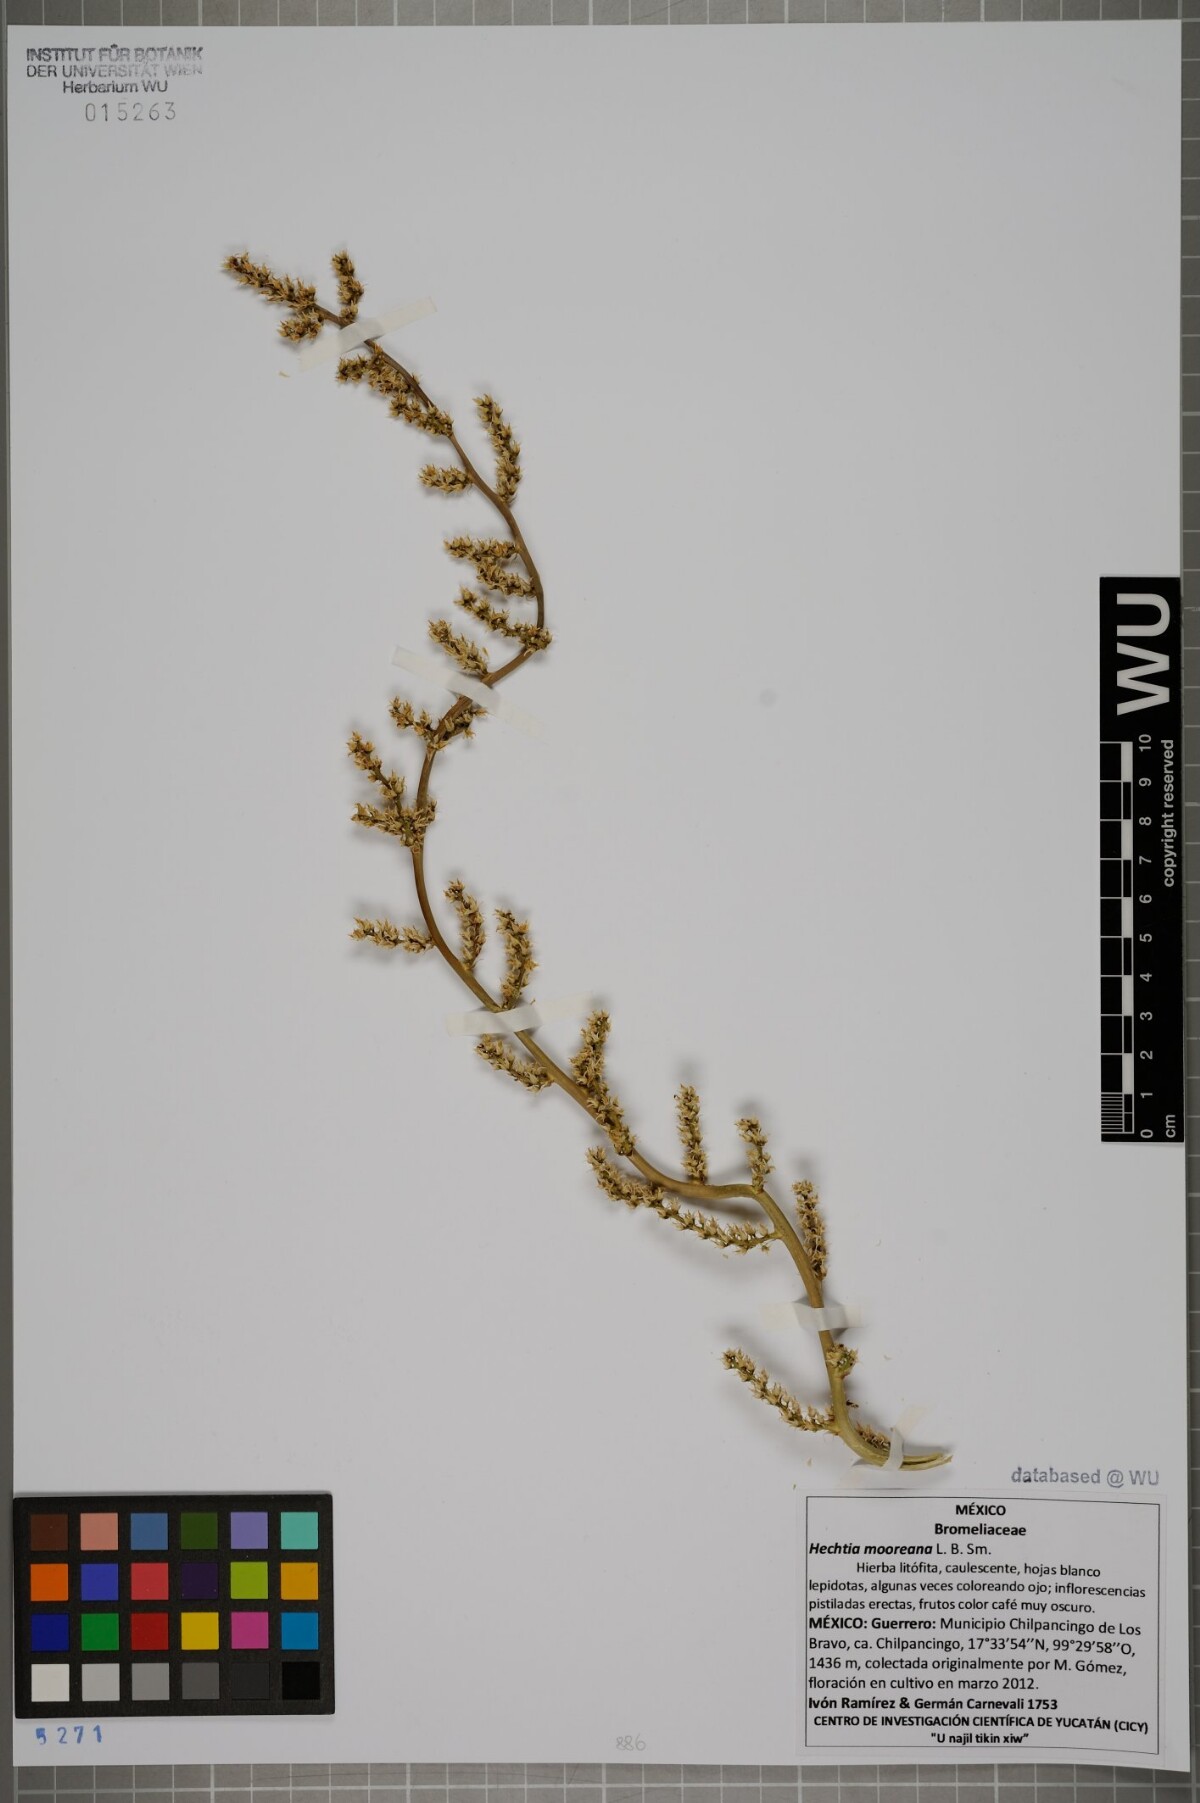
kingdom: Plantae
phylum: Tracheophyta
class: Liliopsida
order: Poales
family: Bromeliaceae
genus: Hechtia
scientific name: Hechtia mooreana
